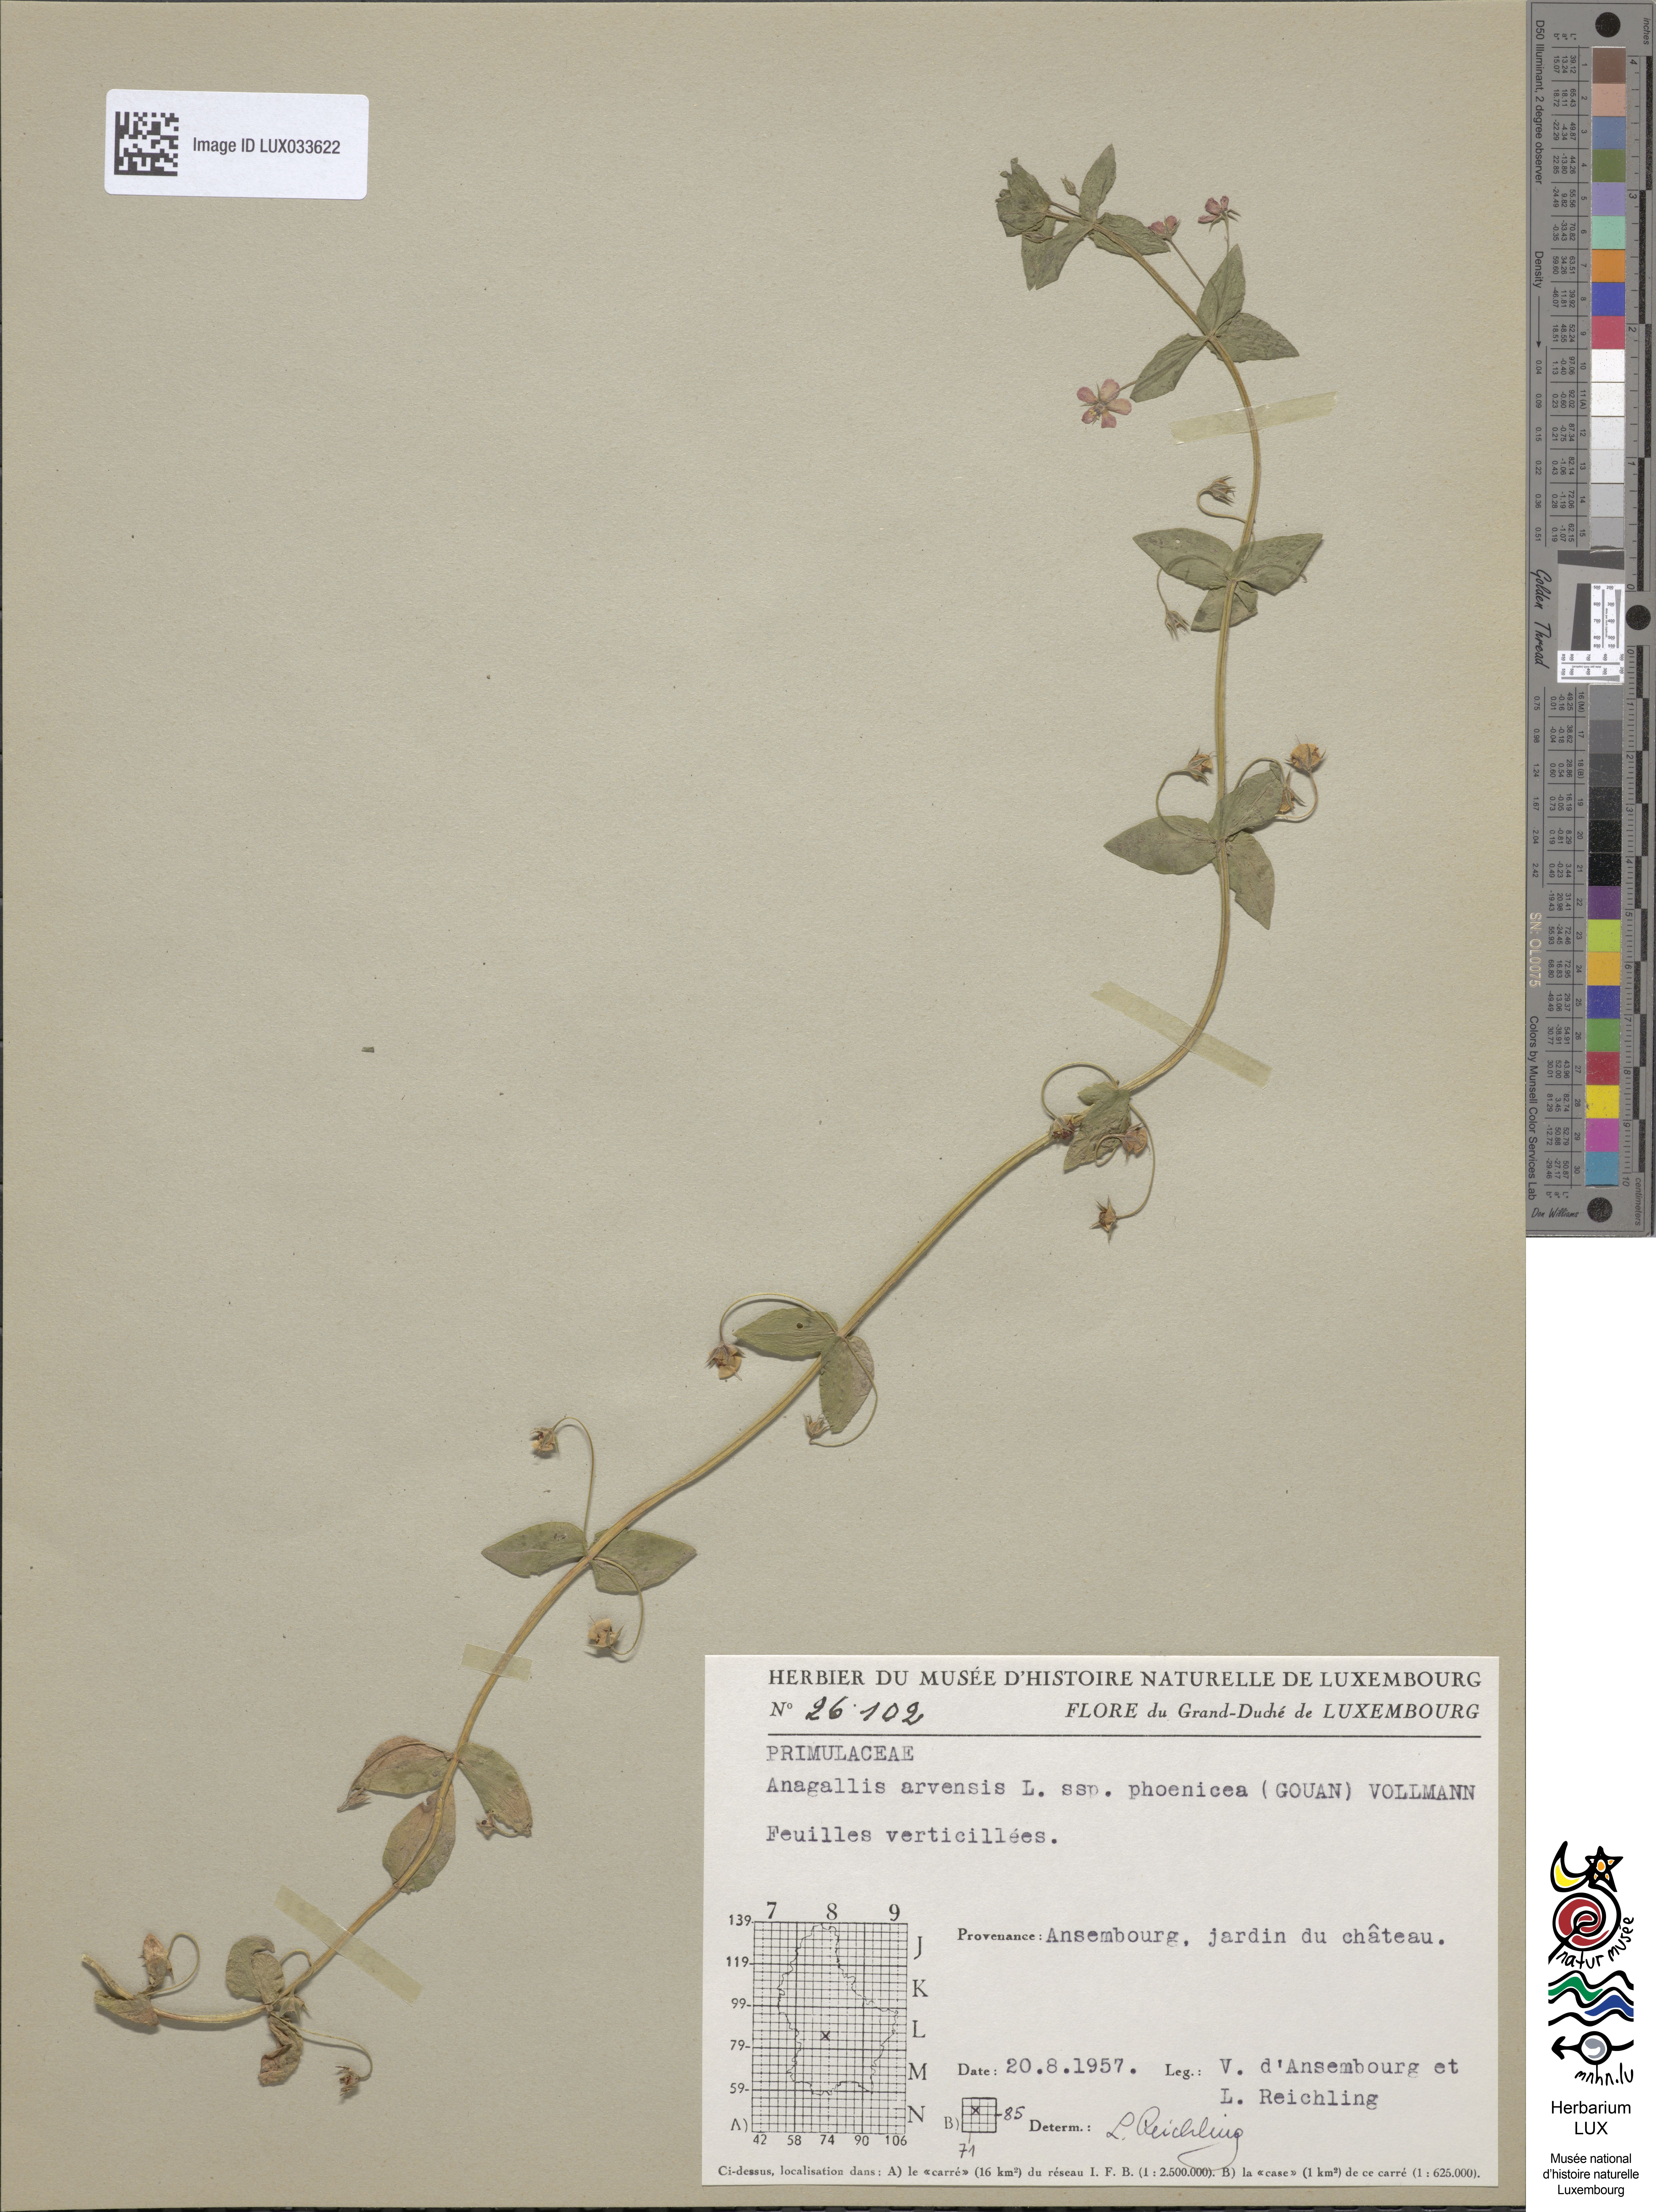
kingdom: Plantae
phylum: Tracheophyta
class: Magnoliopsida
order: Ericales
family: Primulaceae
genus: Lysimachia
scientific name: Lysimachia arvensis
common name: Scarlet pimpernel
